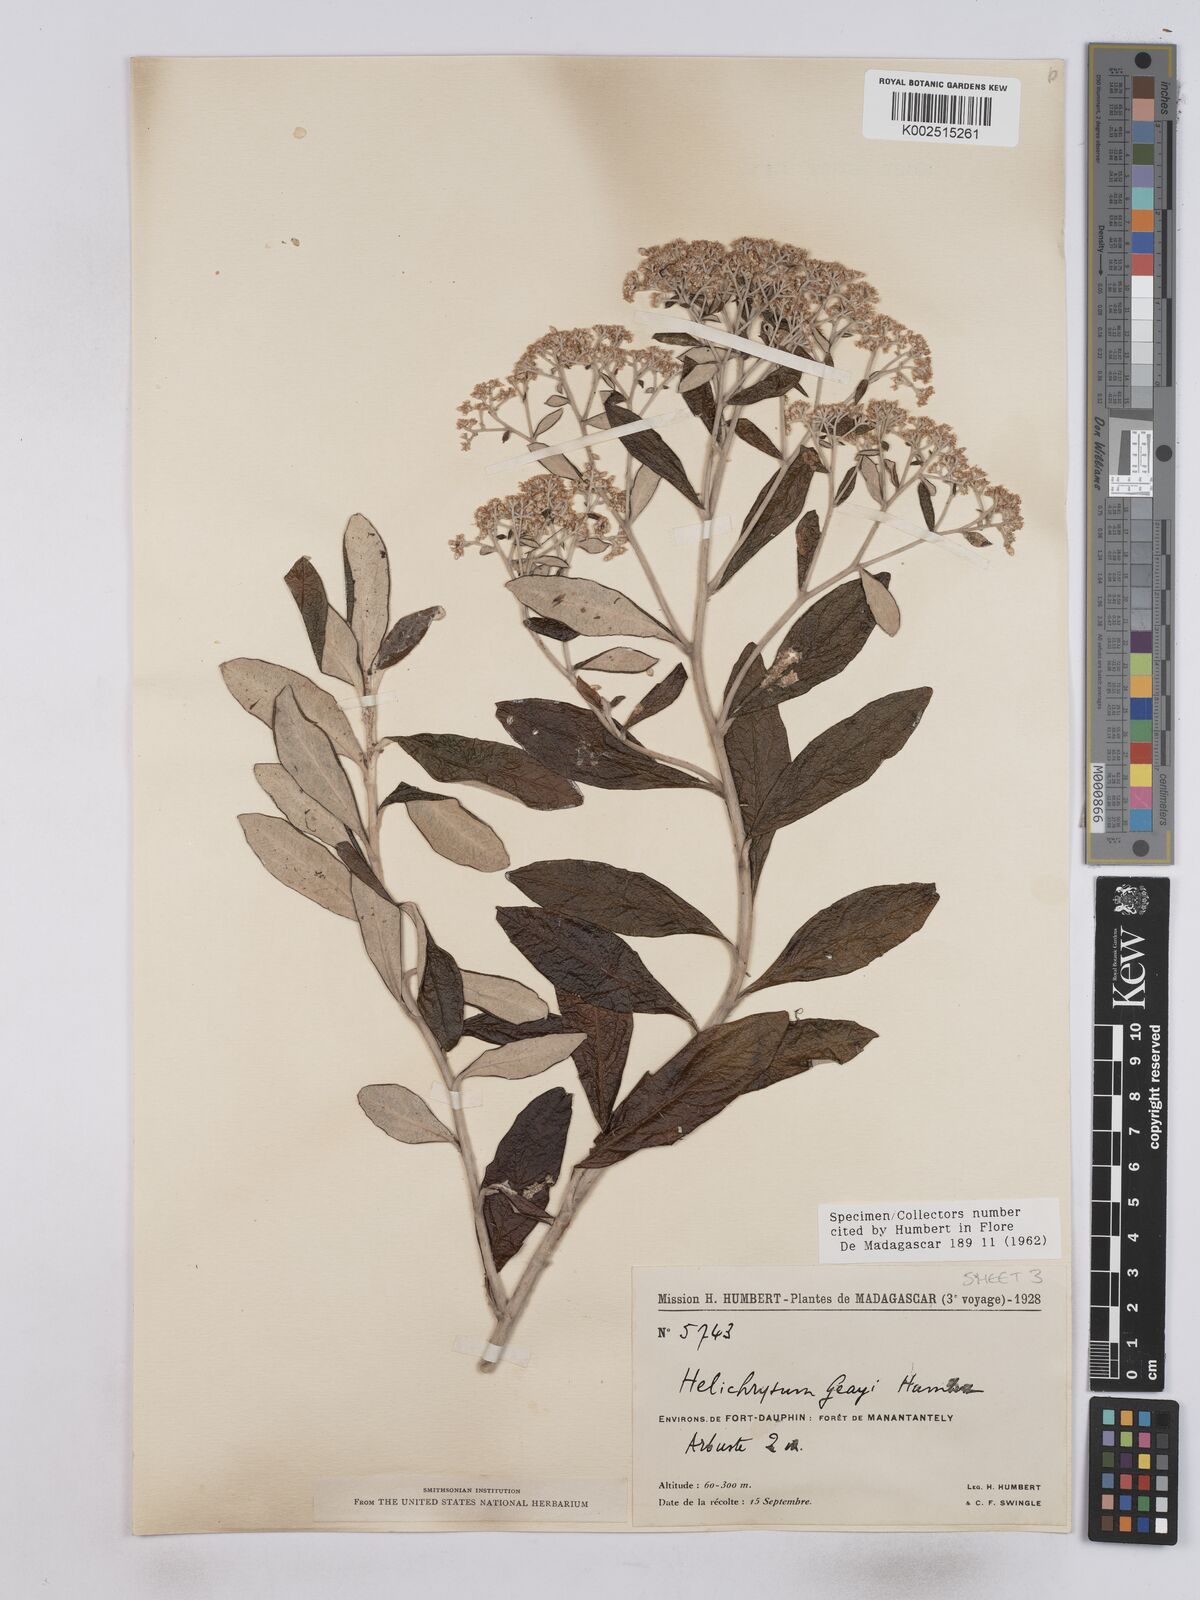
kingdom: Plantae
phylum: Tracheophyta
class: Magnoliopsida
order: Asterales
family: Asteraceae
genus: Helichrysum
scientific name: Helichrysum geayi
